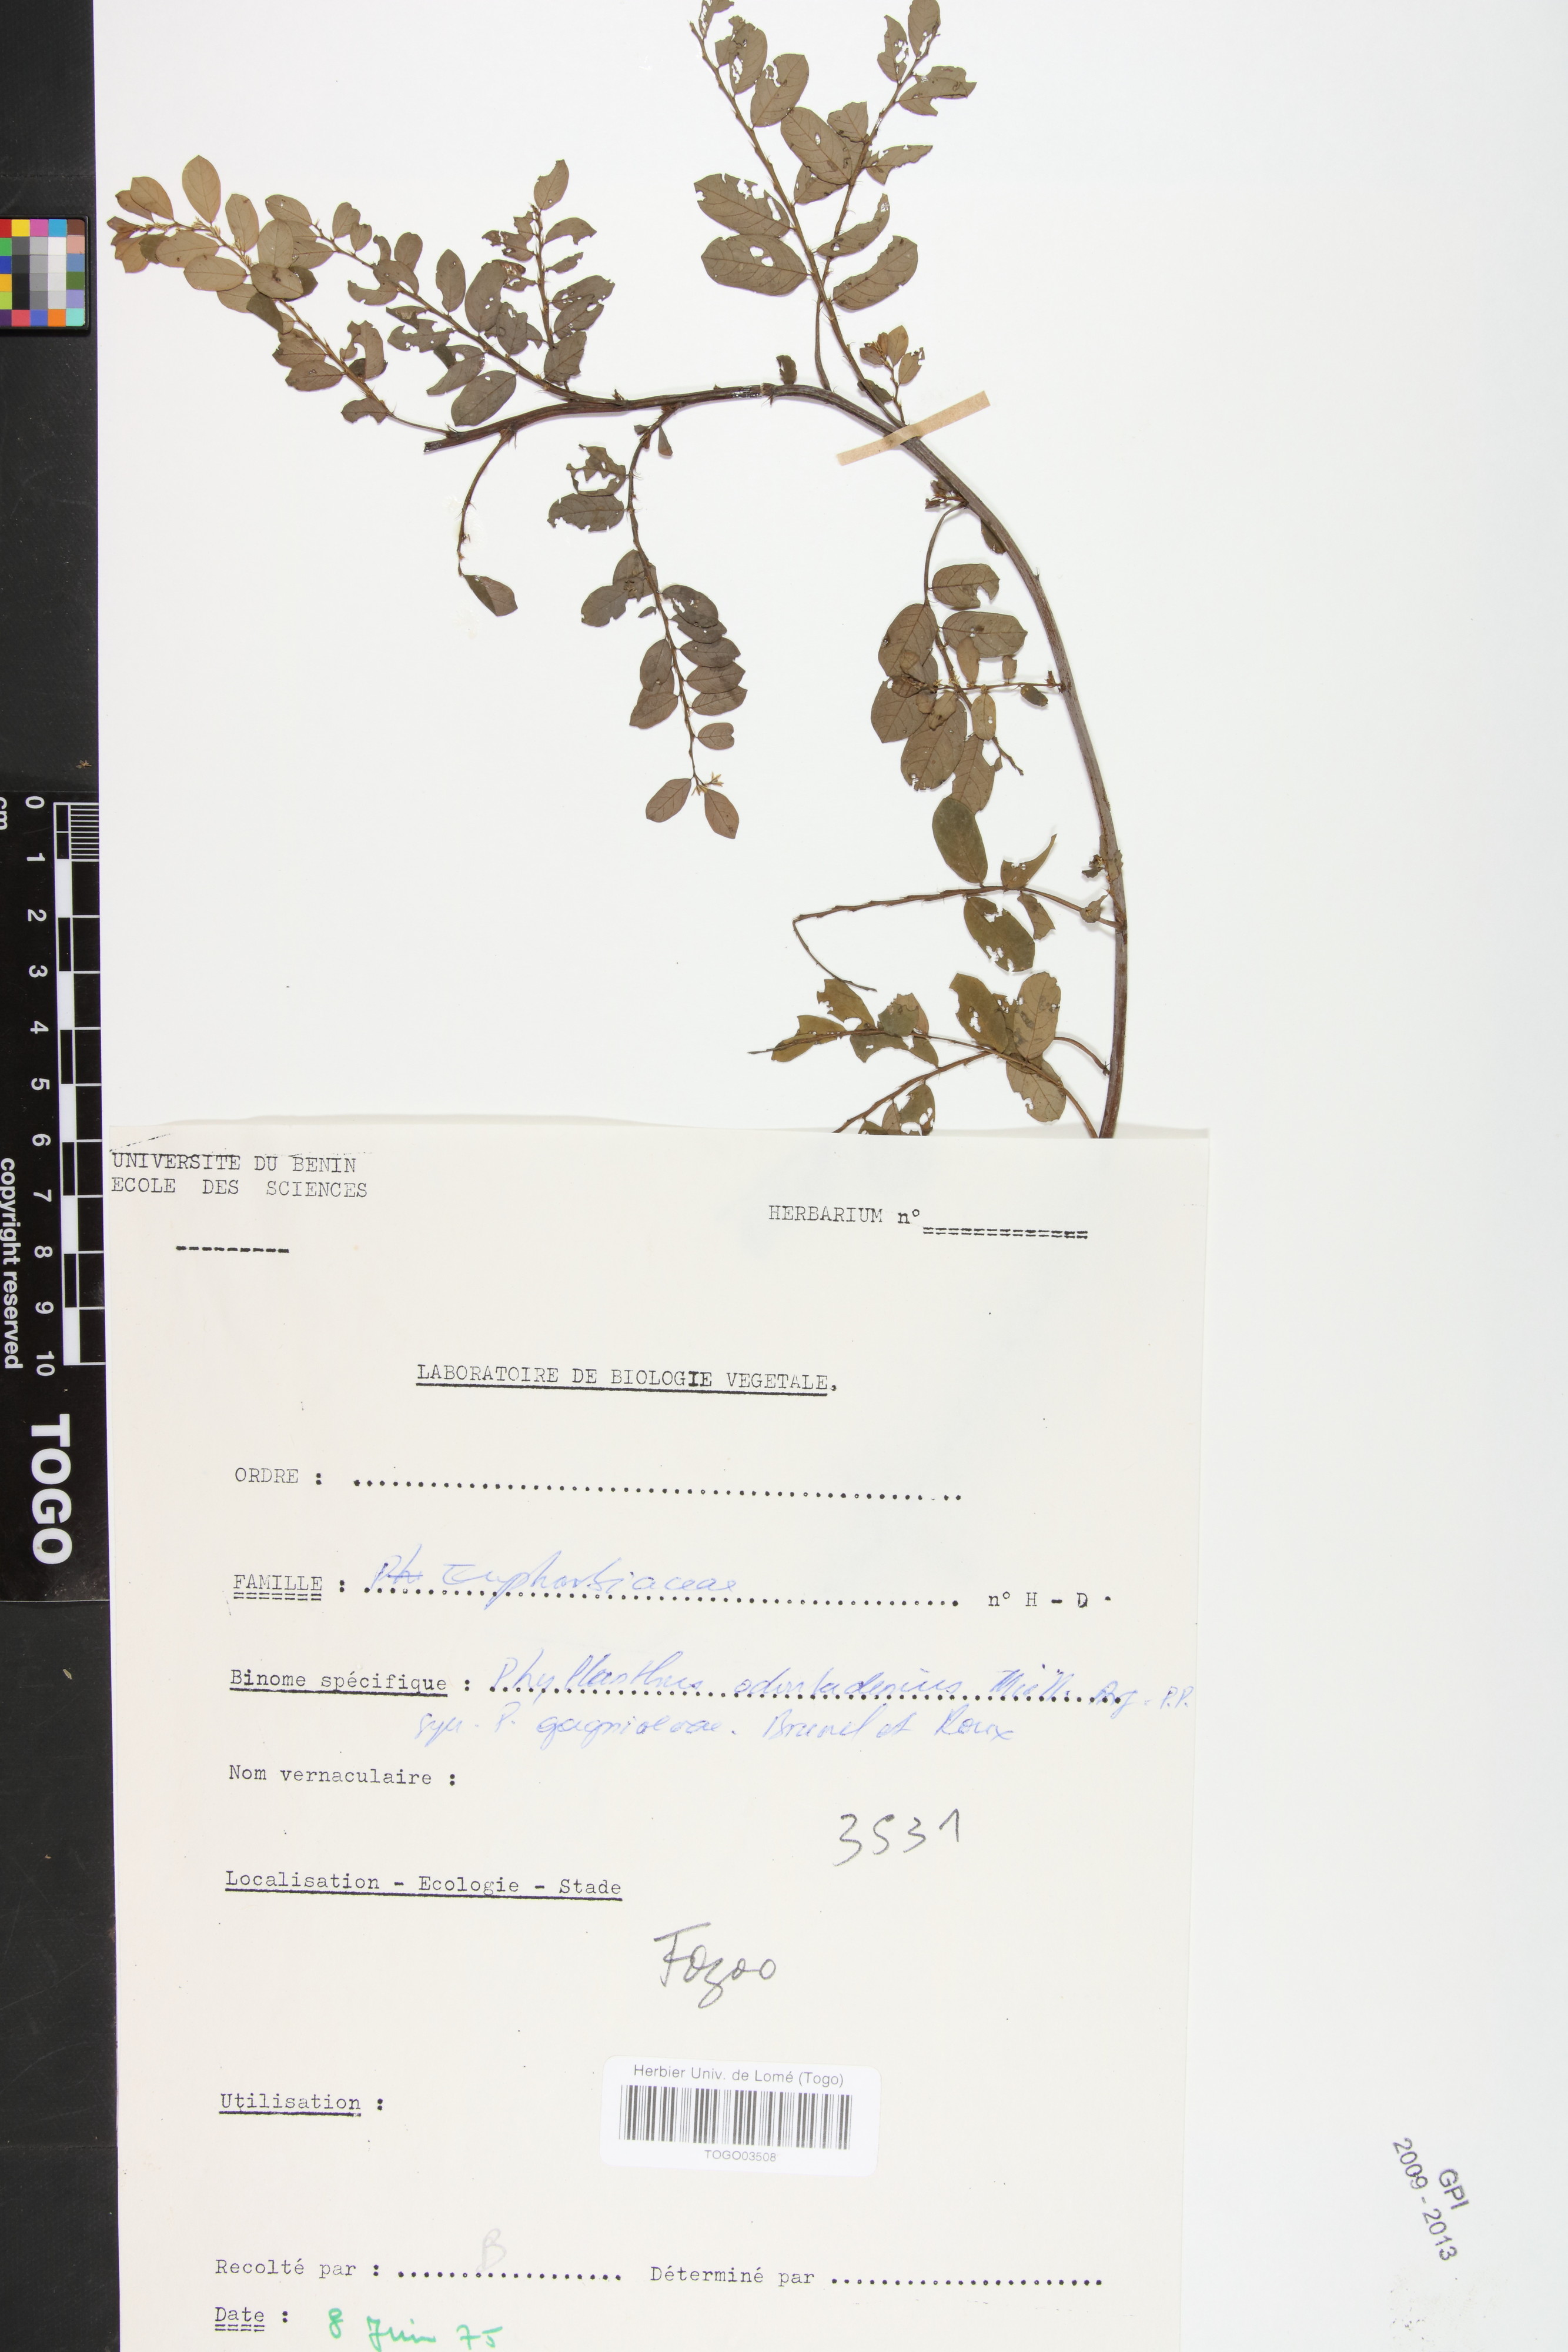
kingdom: Plantae
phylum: Tracheophyta
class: Magnoliopsida
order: Malpighiales
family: Phyllanthaceae
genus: Phyllanthus
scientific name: Phyllanthus odontadenius
